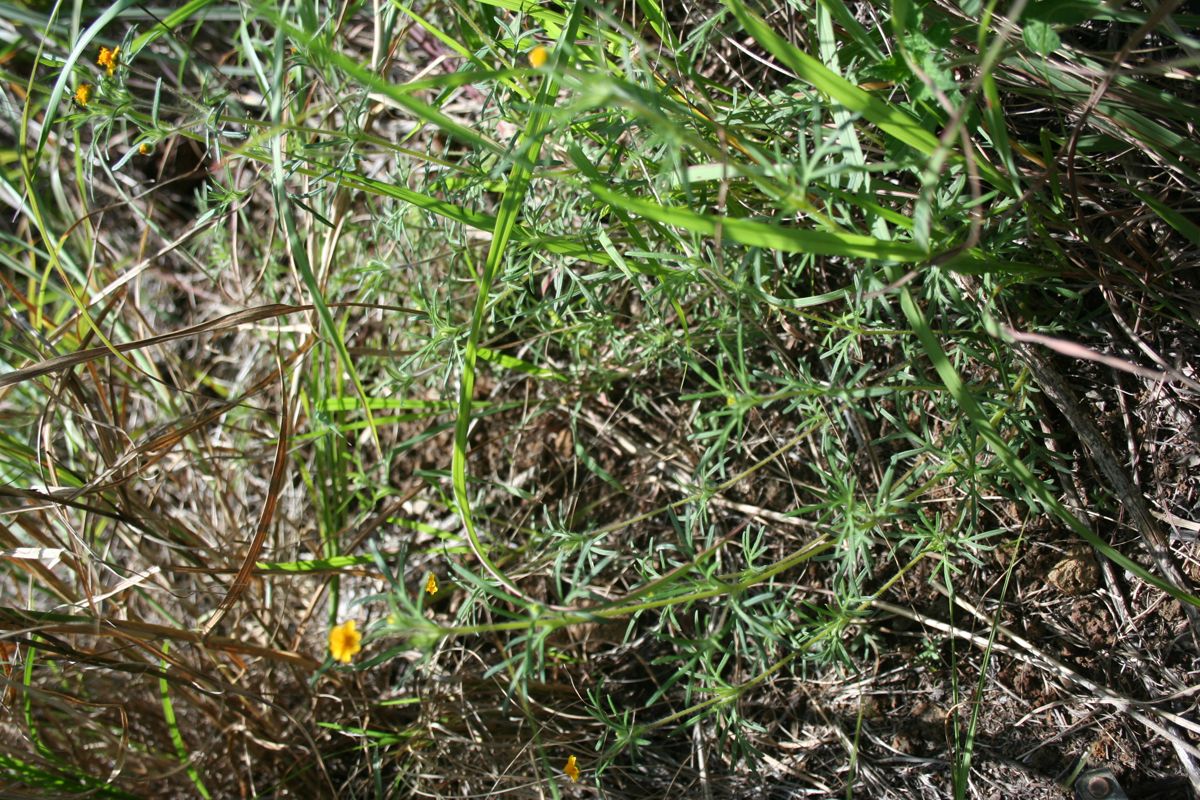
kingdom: Plantae
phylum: Tracheophyta
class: Magnoliopsida
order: Asterales
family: Asteraceae
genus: Melampodium
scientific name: Melampodium linearilobum
